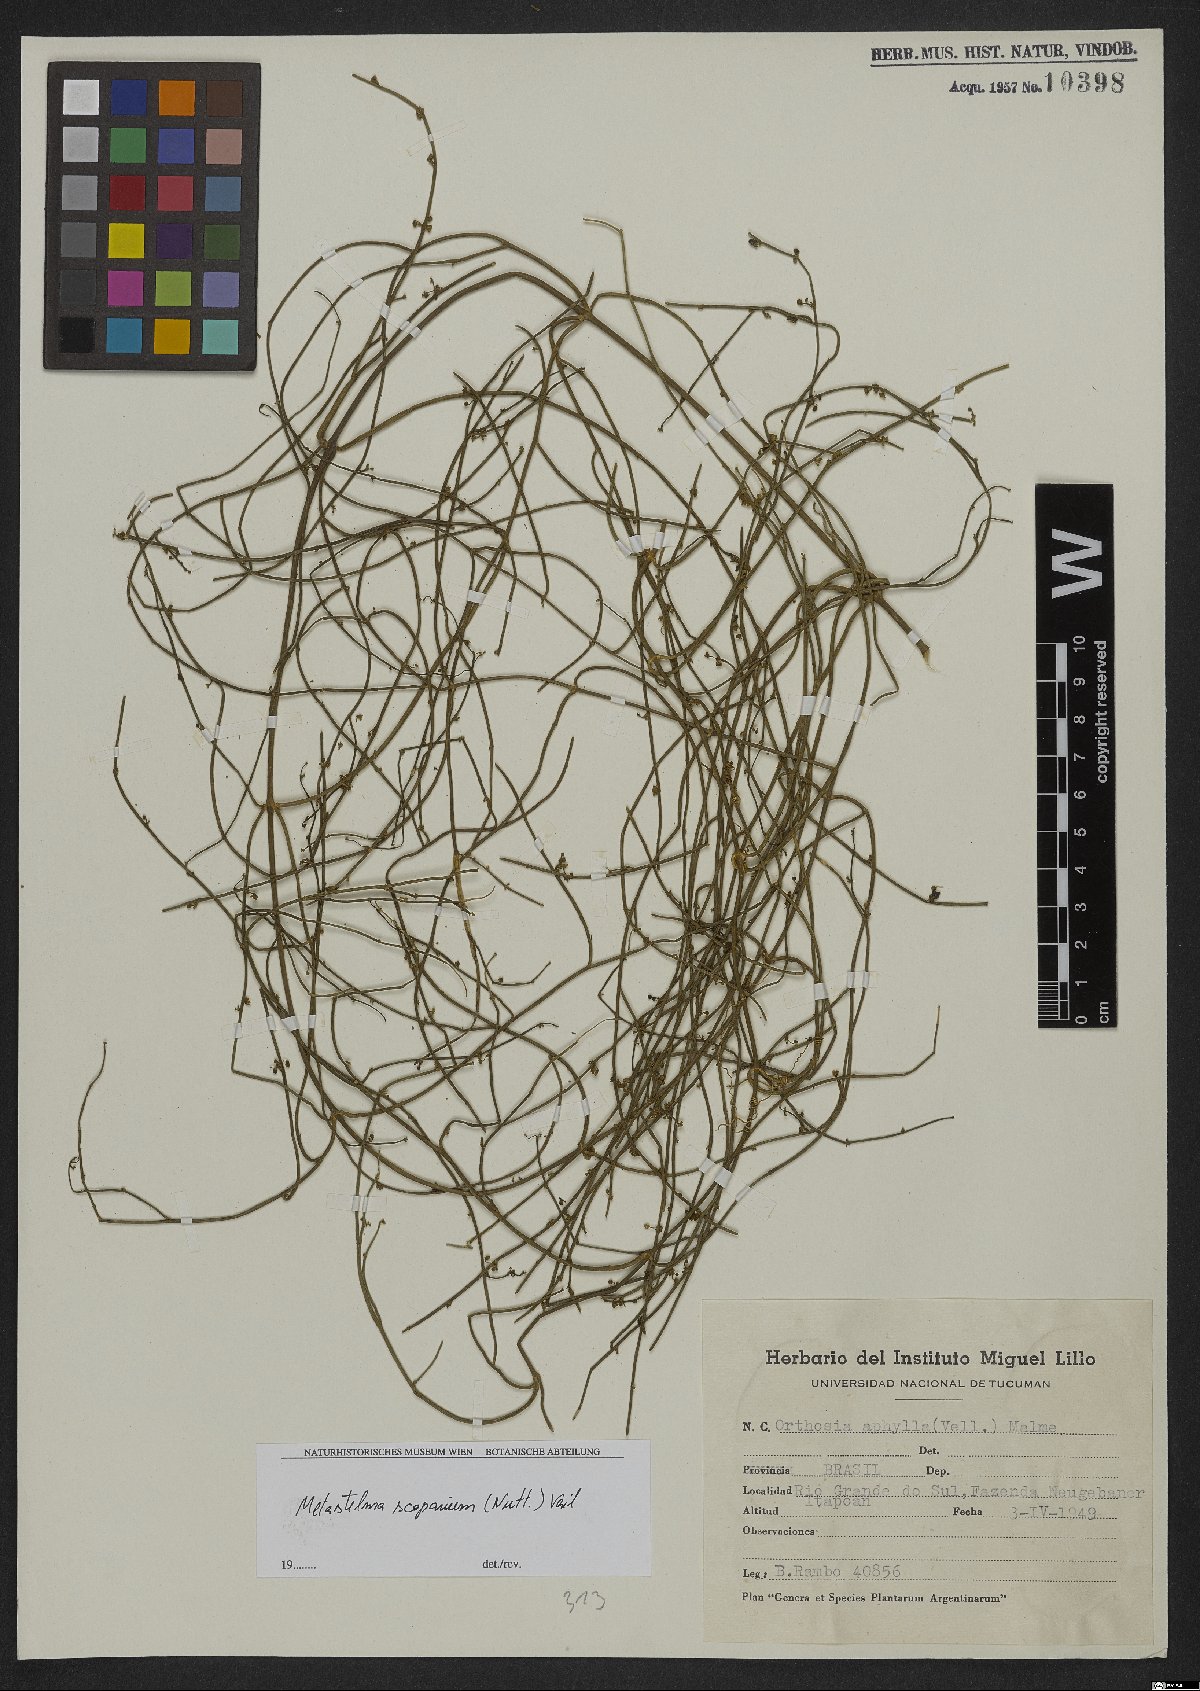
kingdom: Plantae
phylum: Tracheophyta
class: Magnoliopsida
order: Gentianales
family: Apocynaceae
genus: Orthosia
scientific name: Orthosia scoparia
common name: Leafless swallow-wort
